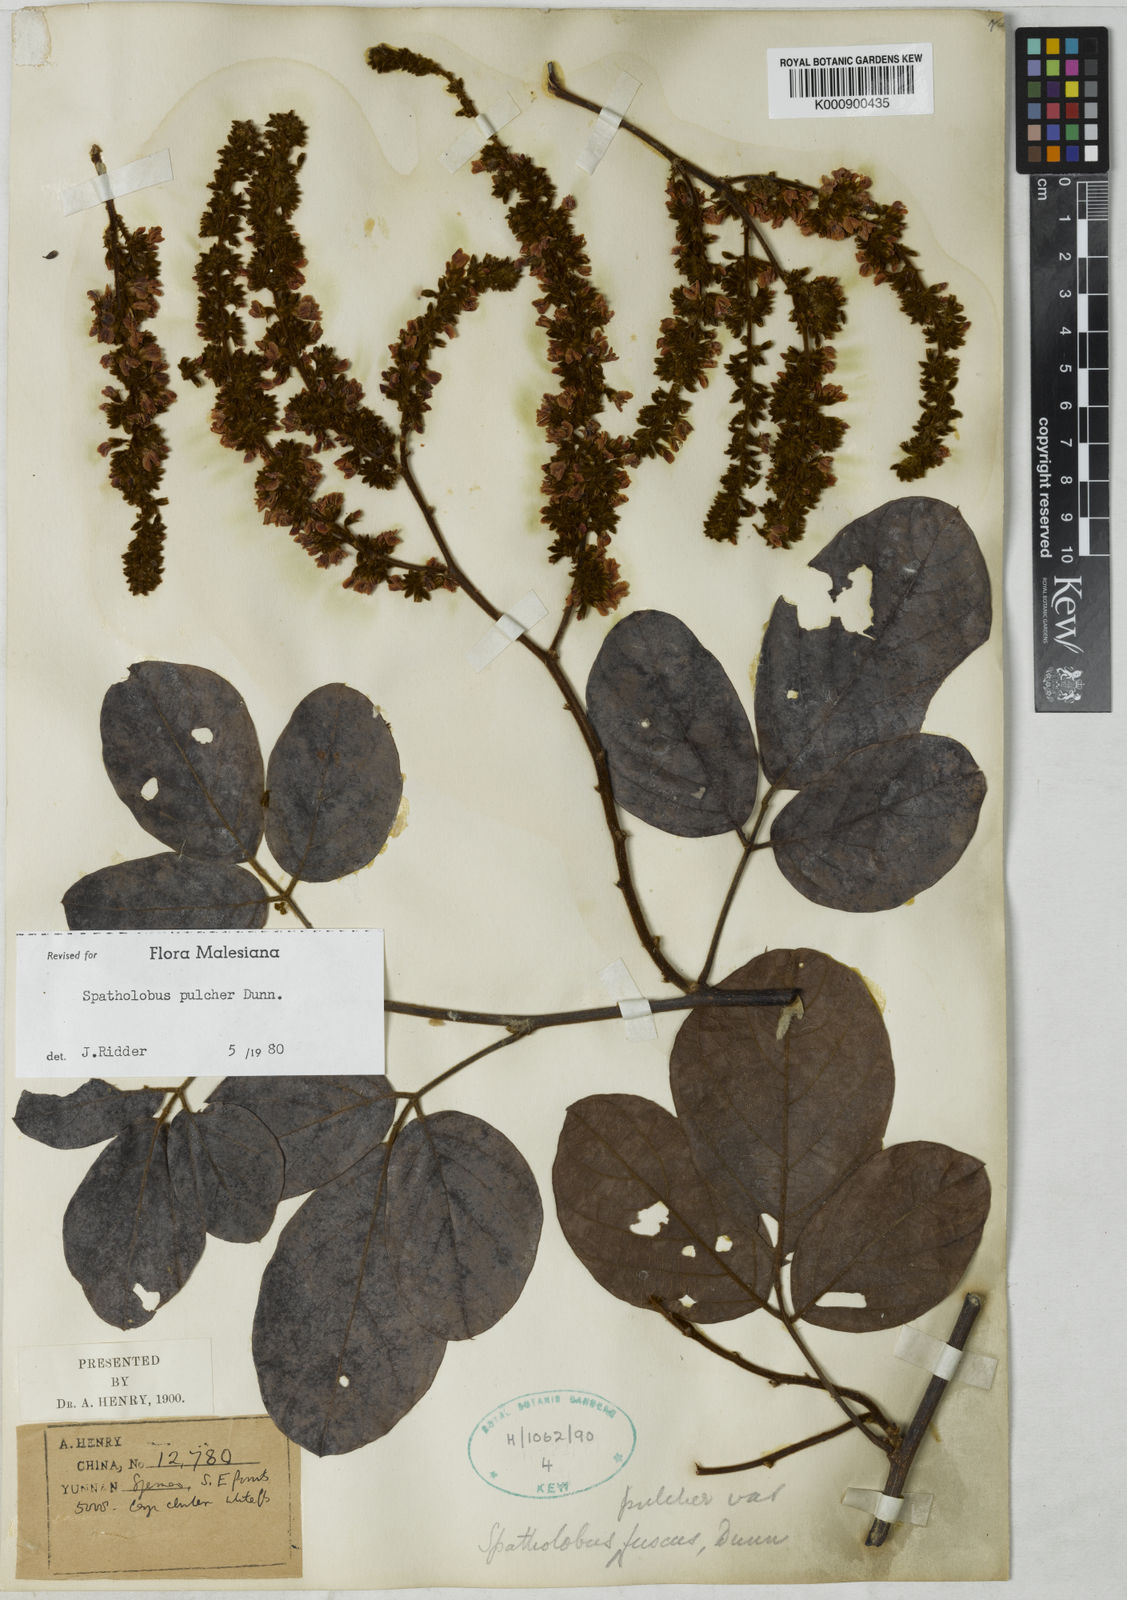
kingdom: Plantae
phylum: Tracheophyta
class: Magnoliopsida
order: Fabales
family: Fabaceae
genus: Spatholobus
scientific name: Spatholobus
